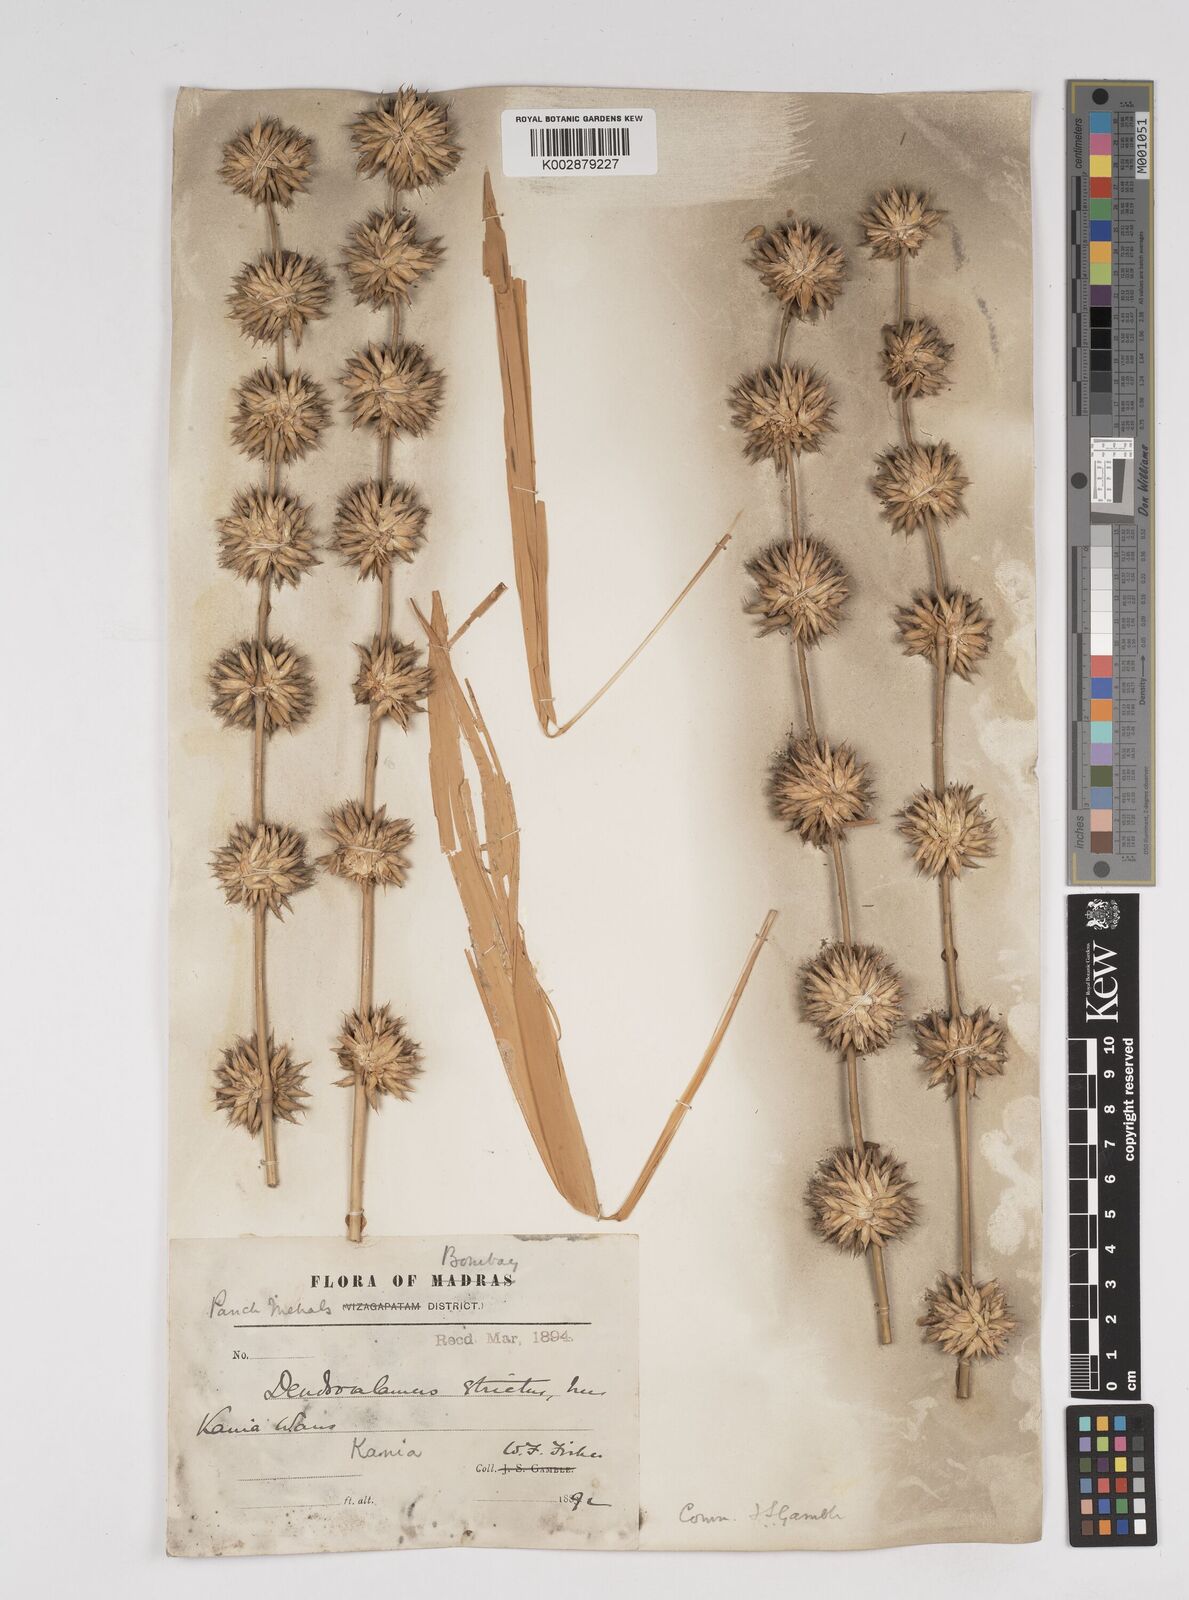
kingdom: Plantae
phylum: Tracheophyta
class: Liliopsida
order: Poales
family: Poaceae
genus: Dendrocalamus
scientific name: Dendrocalamus strictus
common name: Male bamboo
